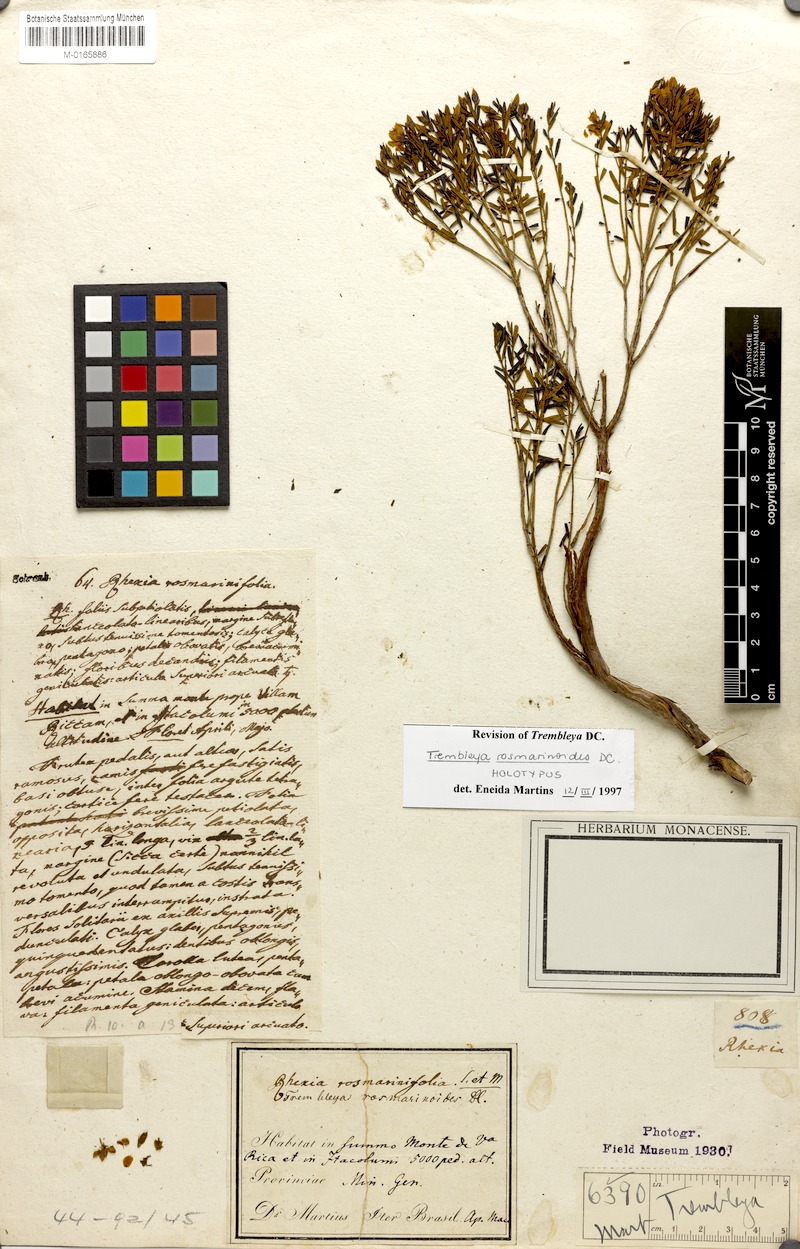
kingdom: Plantae
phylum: Tracheophyta
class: Magnoliopsida
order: Myrtales
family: Melastomataceae
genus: Microlicia
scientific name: Microlicia rosmarinoides
